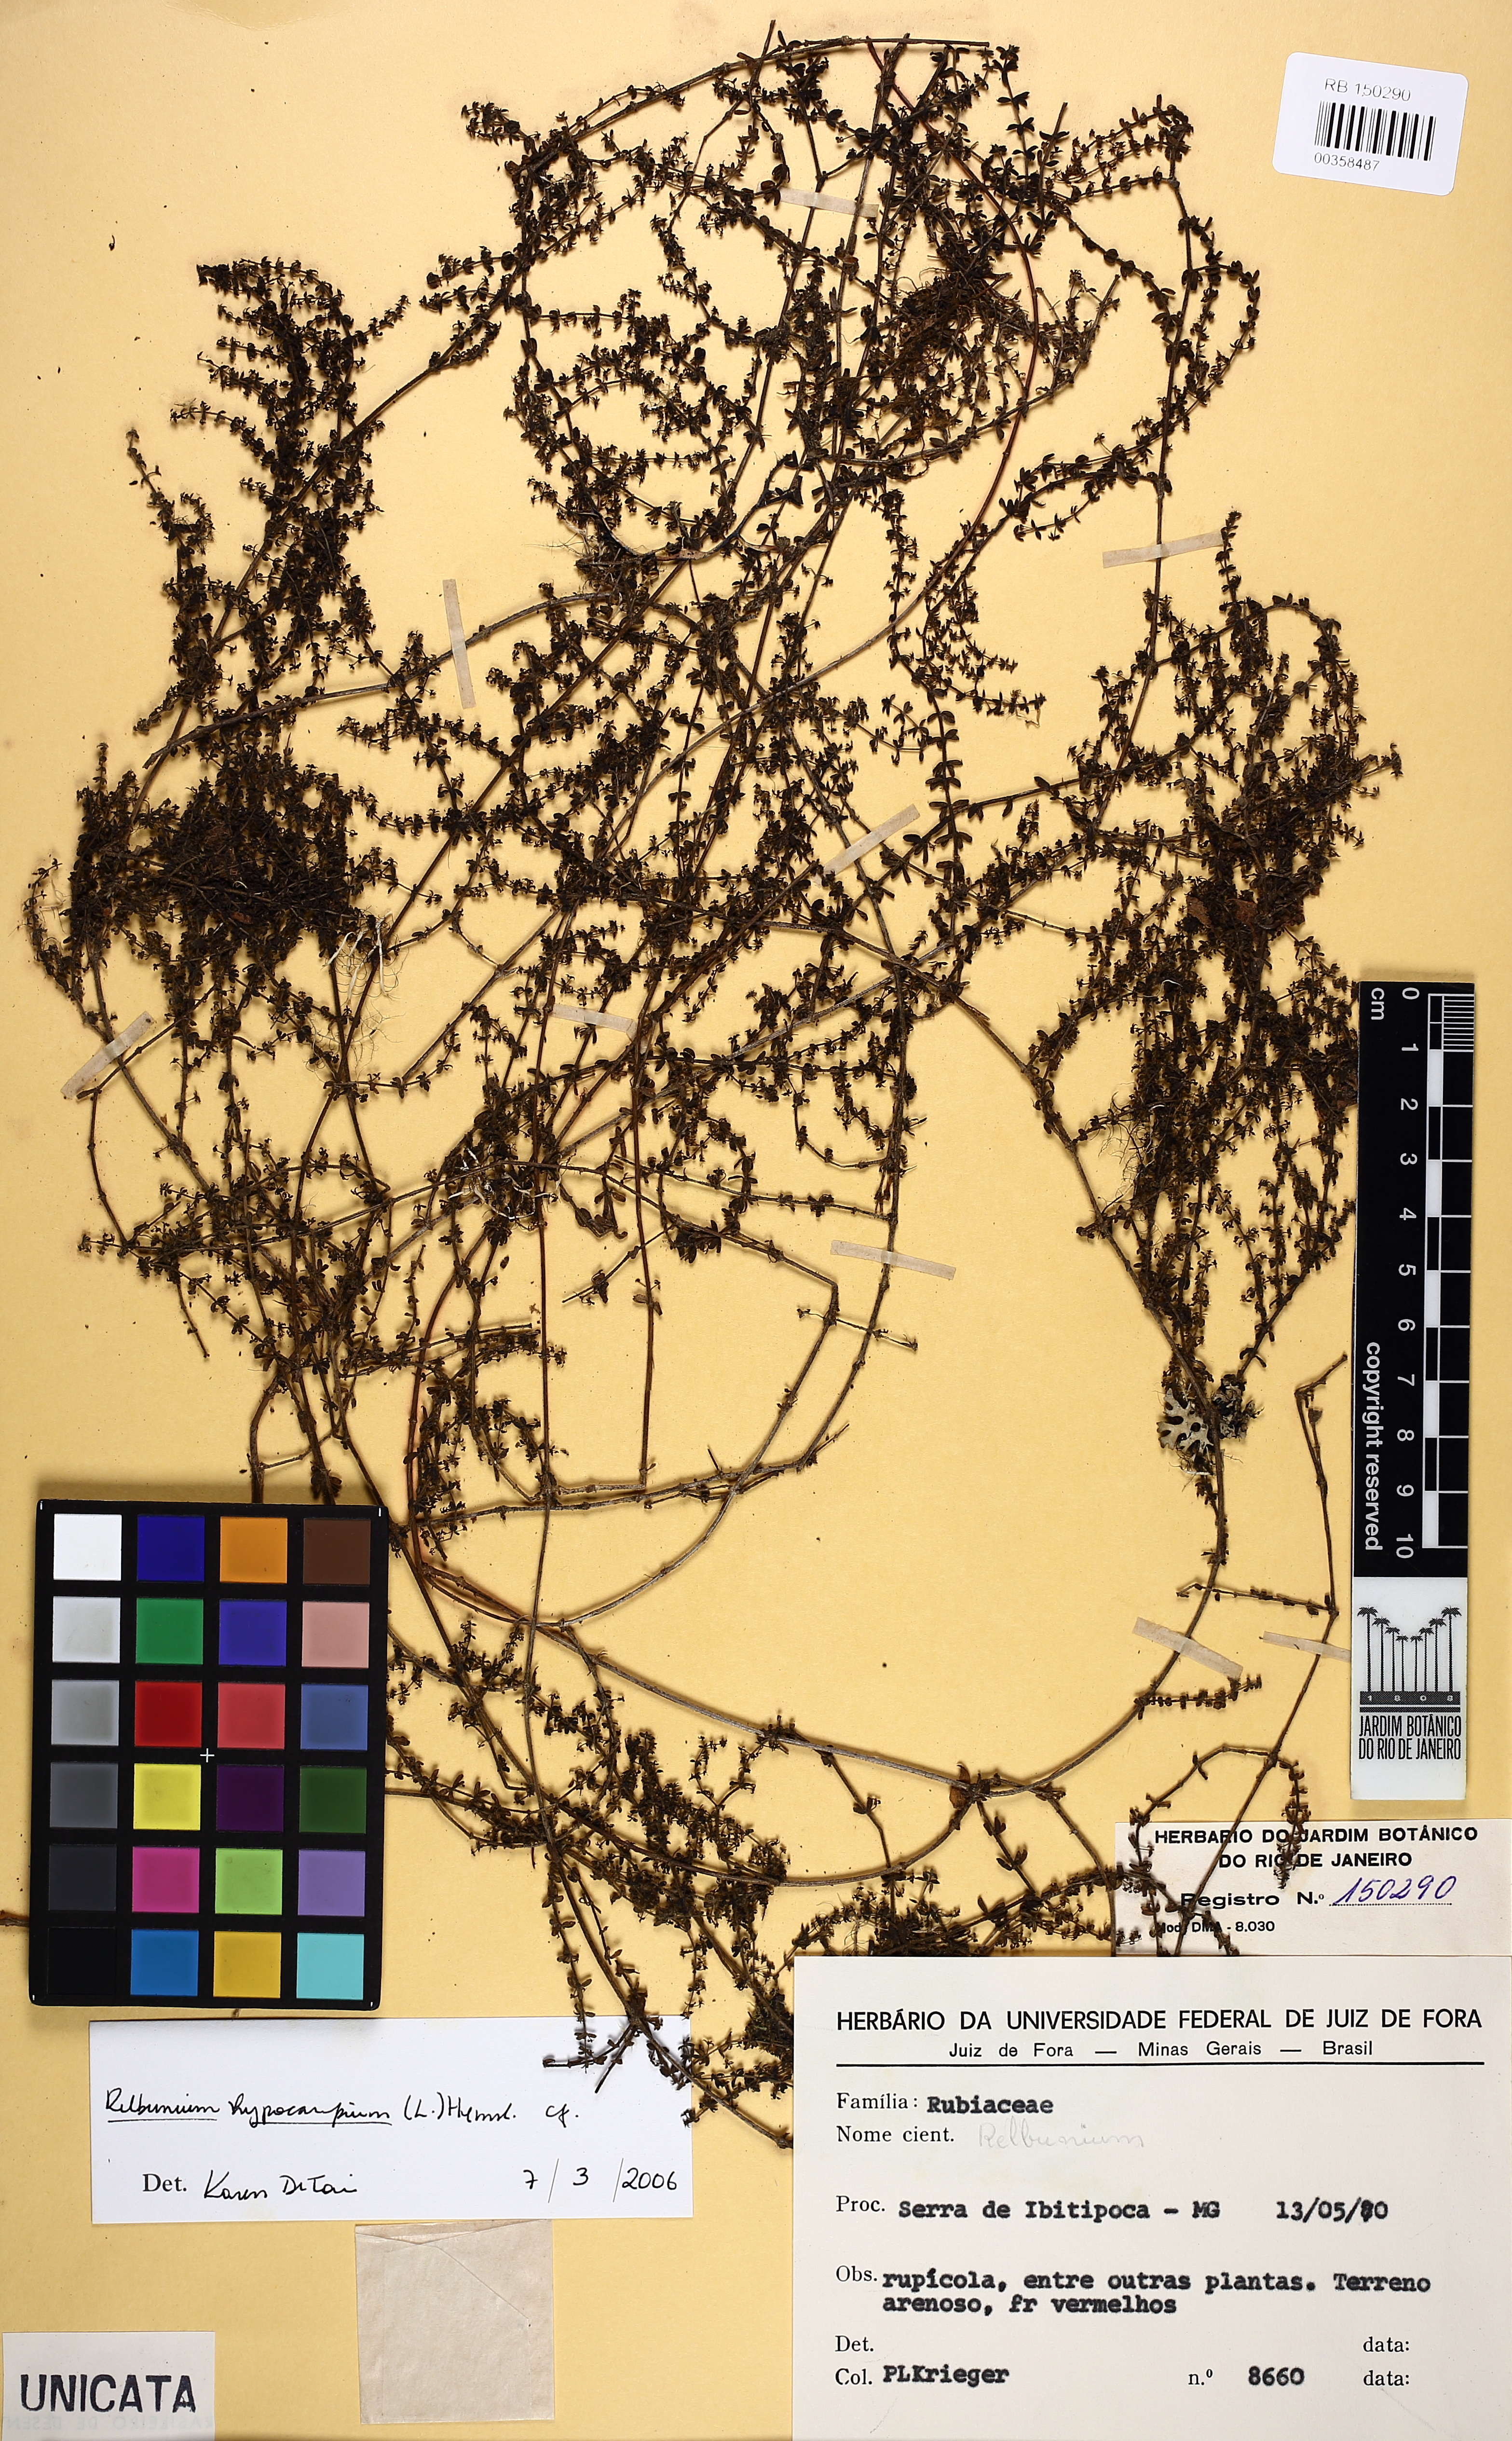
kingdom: Plantae
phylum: Tracheophyta
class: Magnoliopsida
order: Gentianales
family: Rubiaceae
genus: Galium
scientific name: Galium hypocarpium
